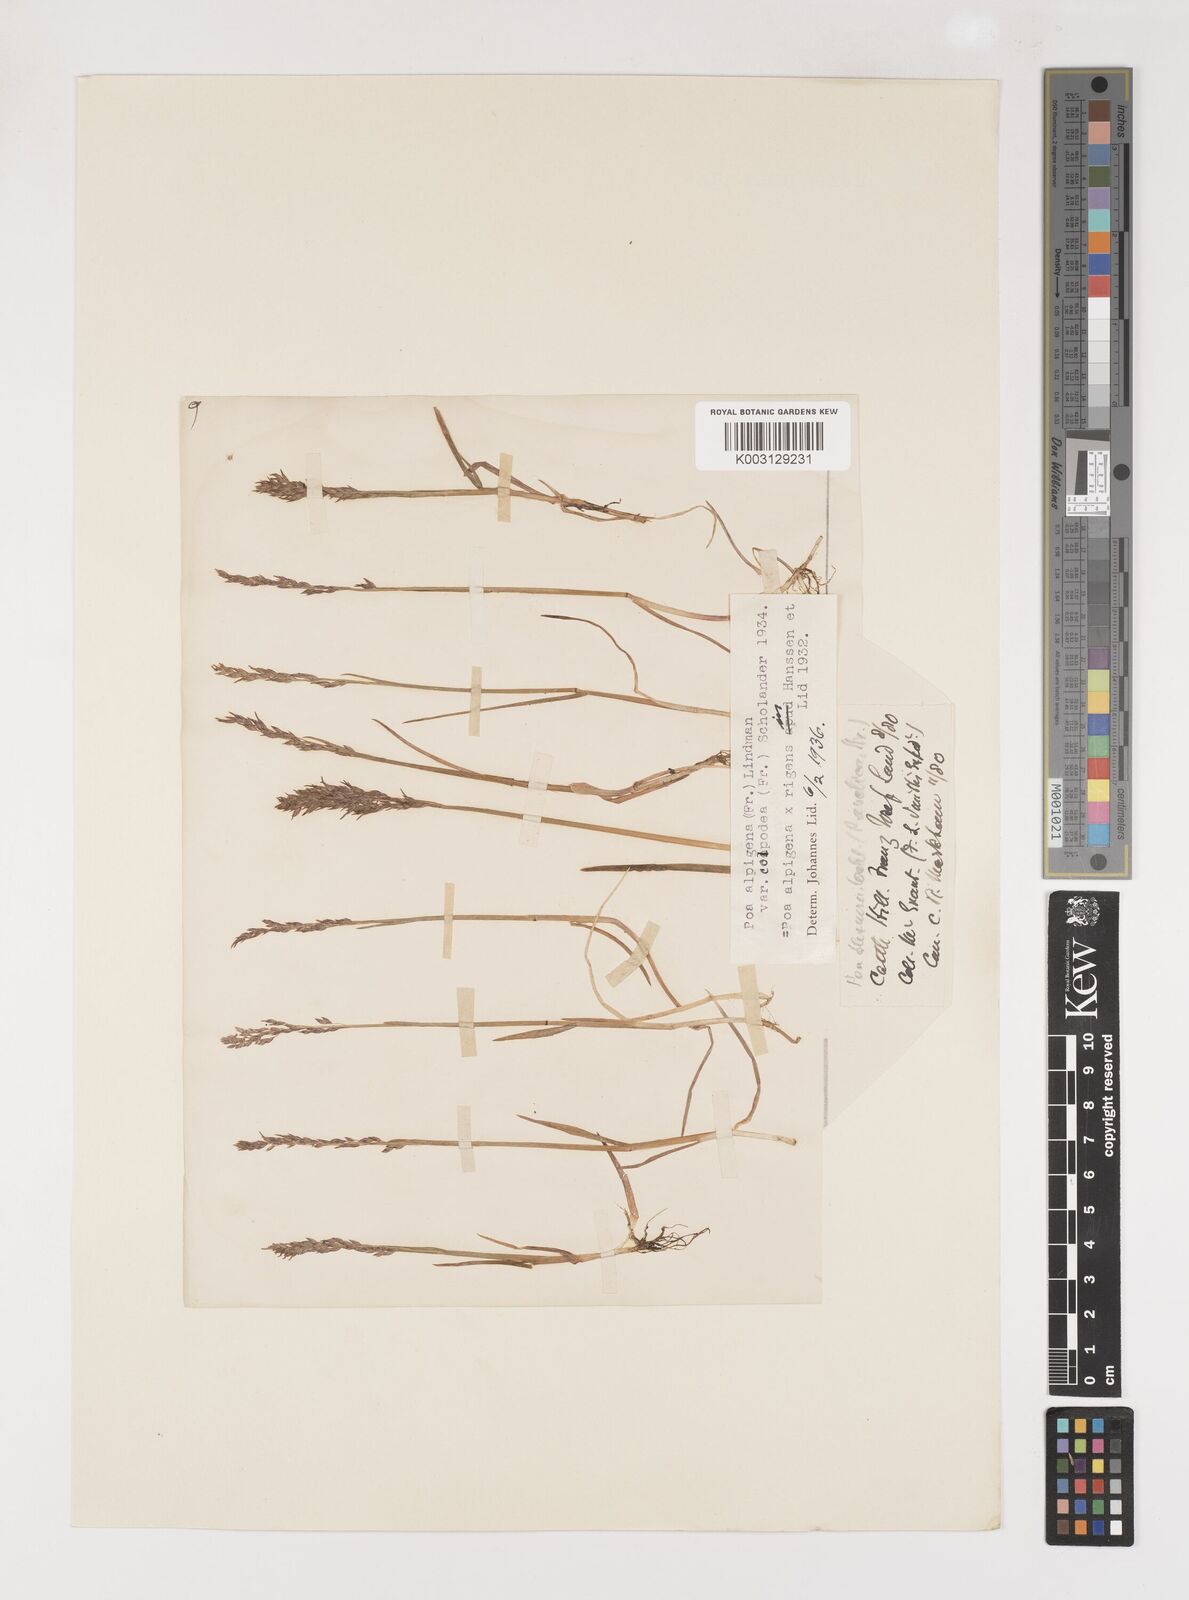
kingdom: Plantae
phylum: Tracheophyta
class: Liliopsida
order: Poales
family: Poaceae
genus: Poa
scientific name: Poa lindebergii
